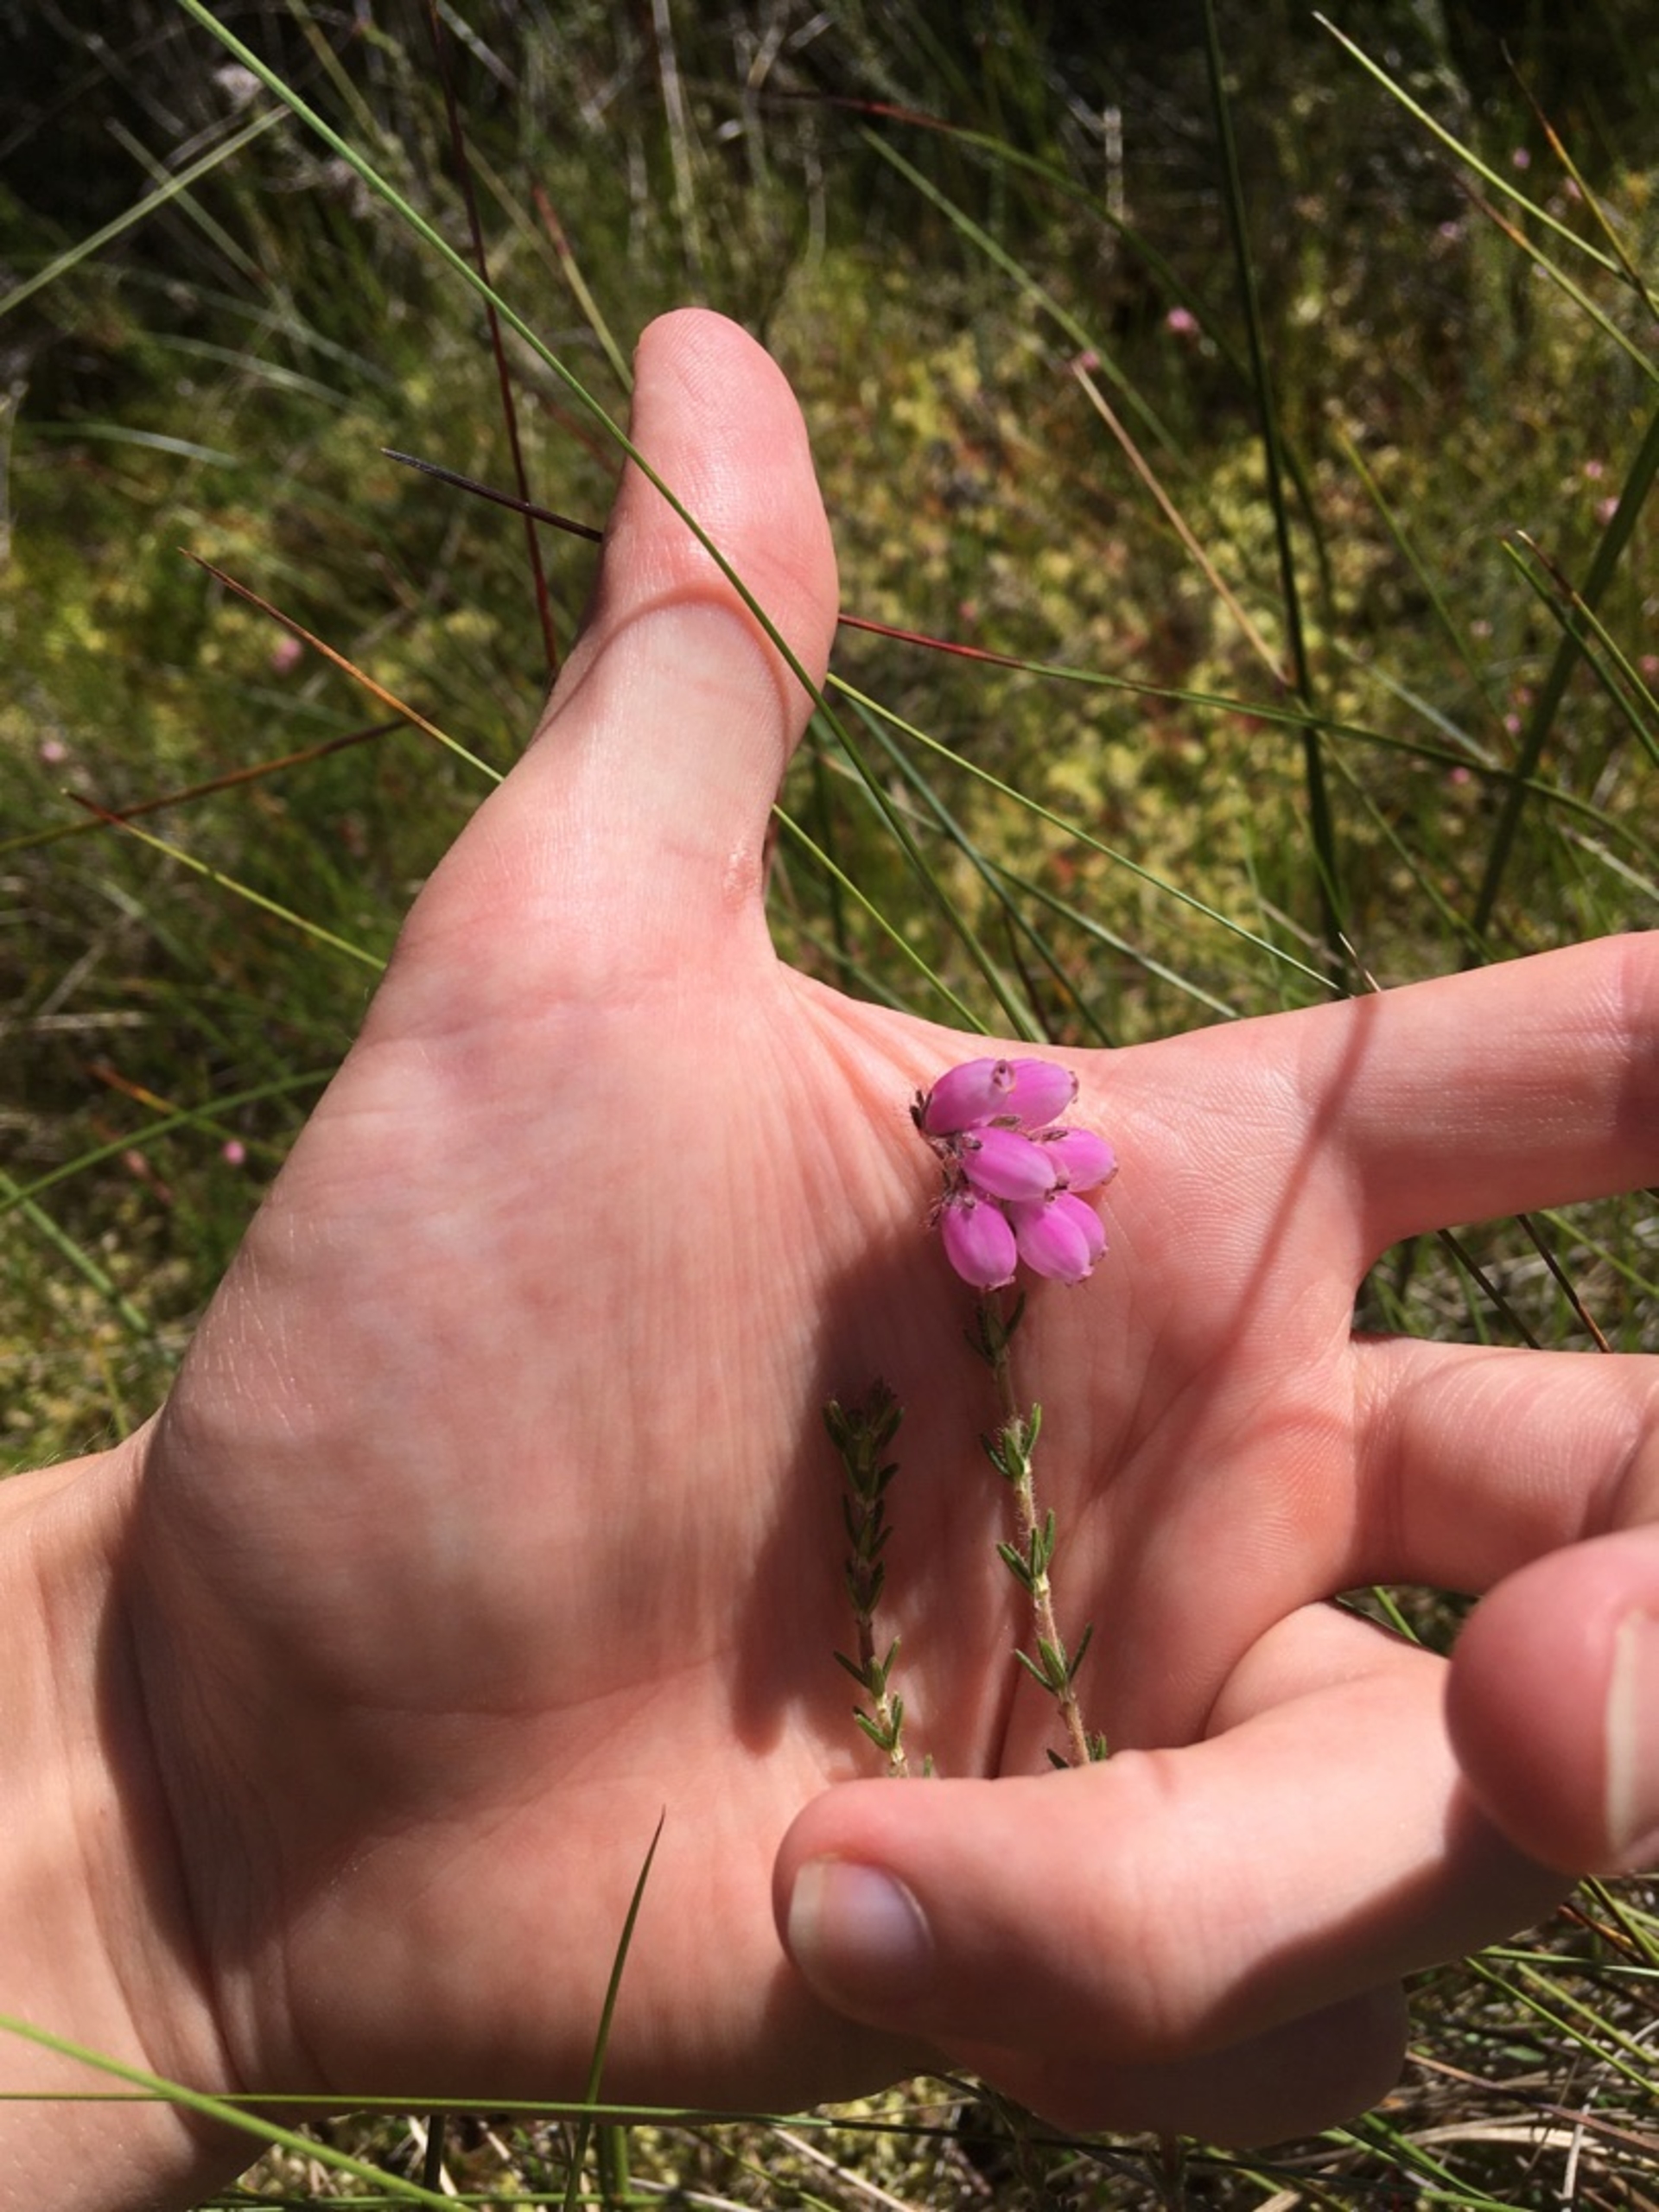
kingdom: Plantae
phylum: Tracheophyta
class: Magnoliopsida
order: Ericales
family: Ericaceae
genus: Erica
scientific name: Erica tetralix
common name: Klokkelyng
